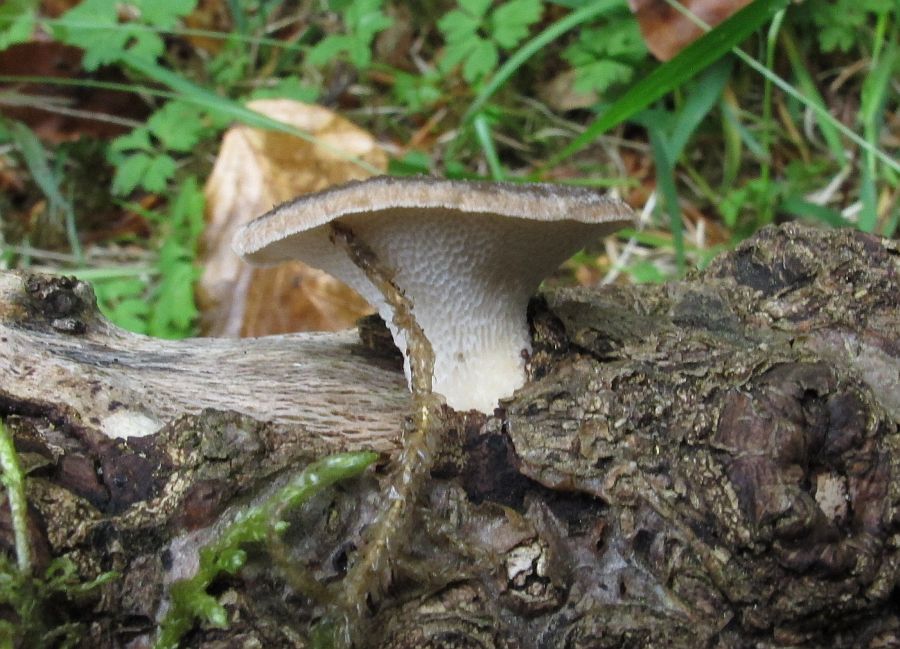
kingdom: Fungi
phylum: Basidiomycota
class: Agaricomycetes
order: Polyporales
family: Polyporaceae
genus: Polyporus
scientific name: Polyporus tuberaster
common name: knoldet stilkporesvamp
